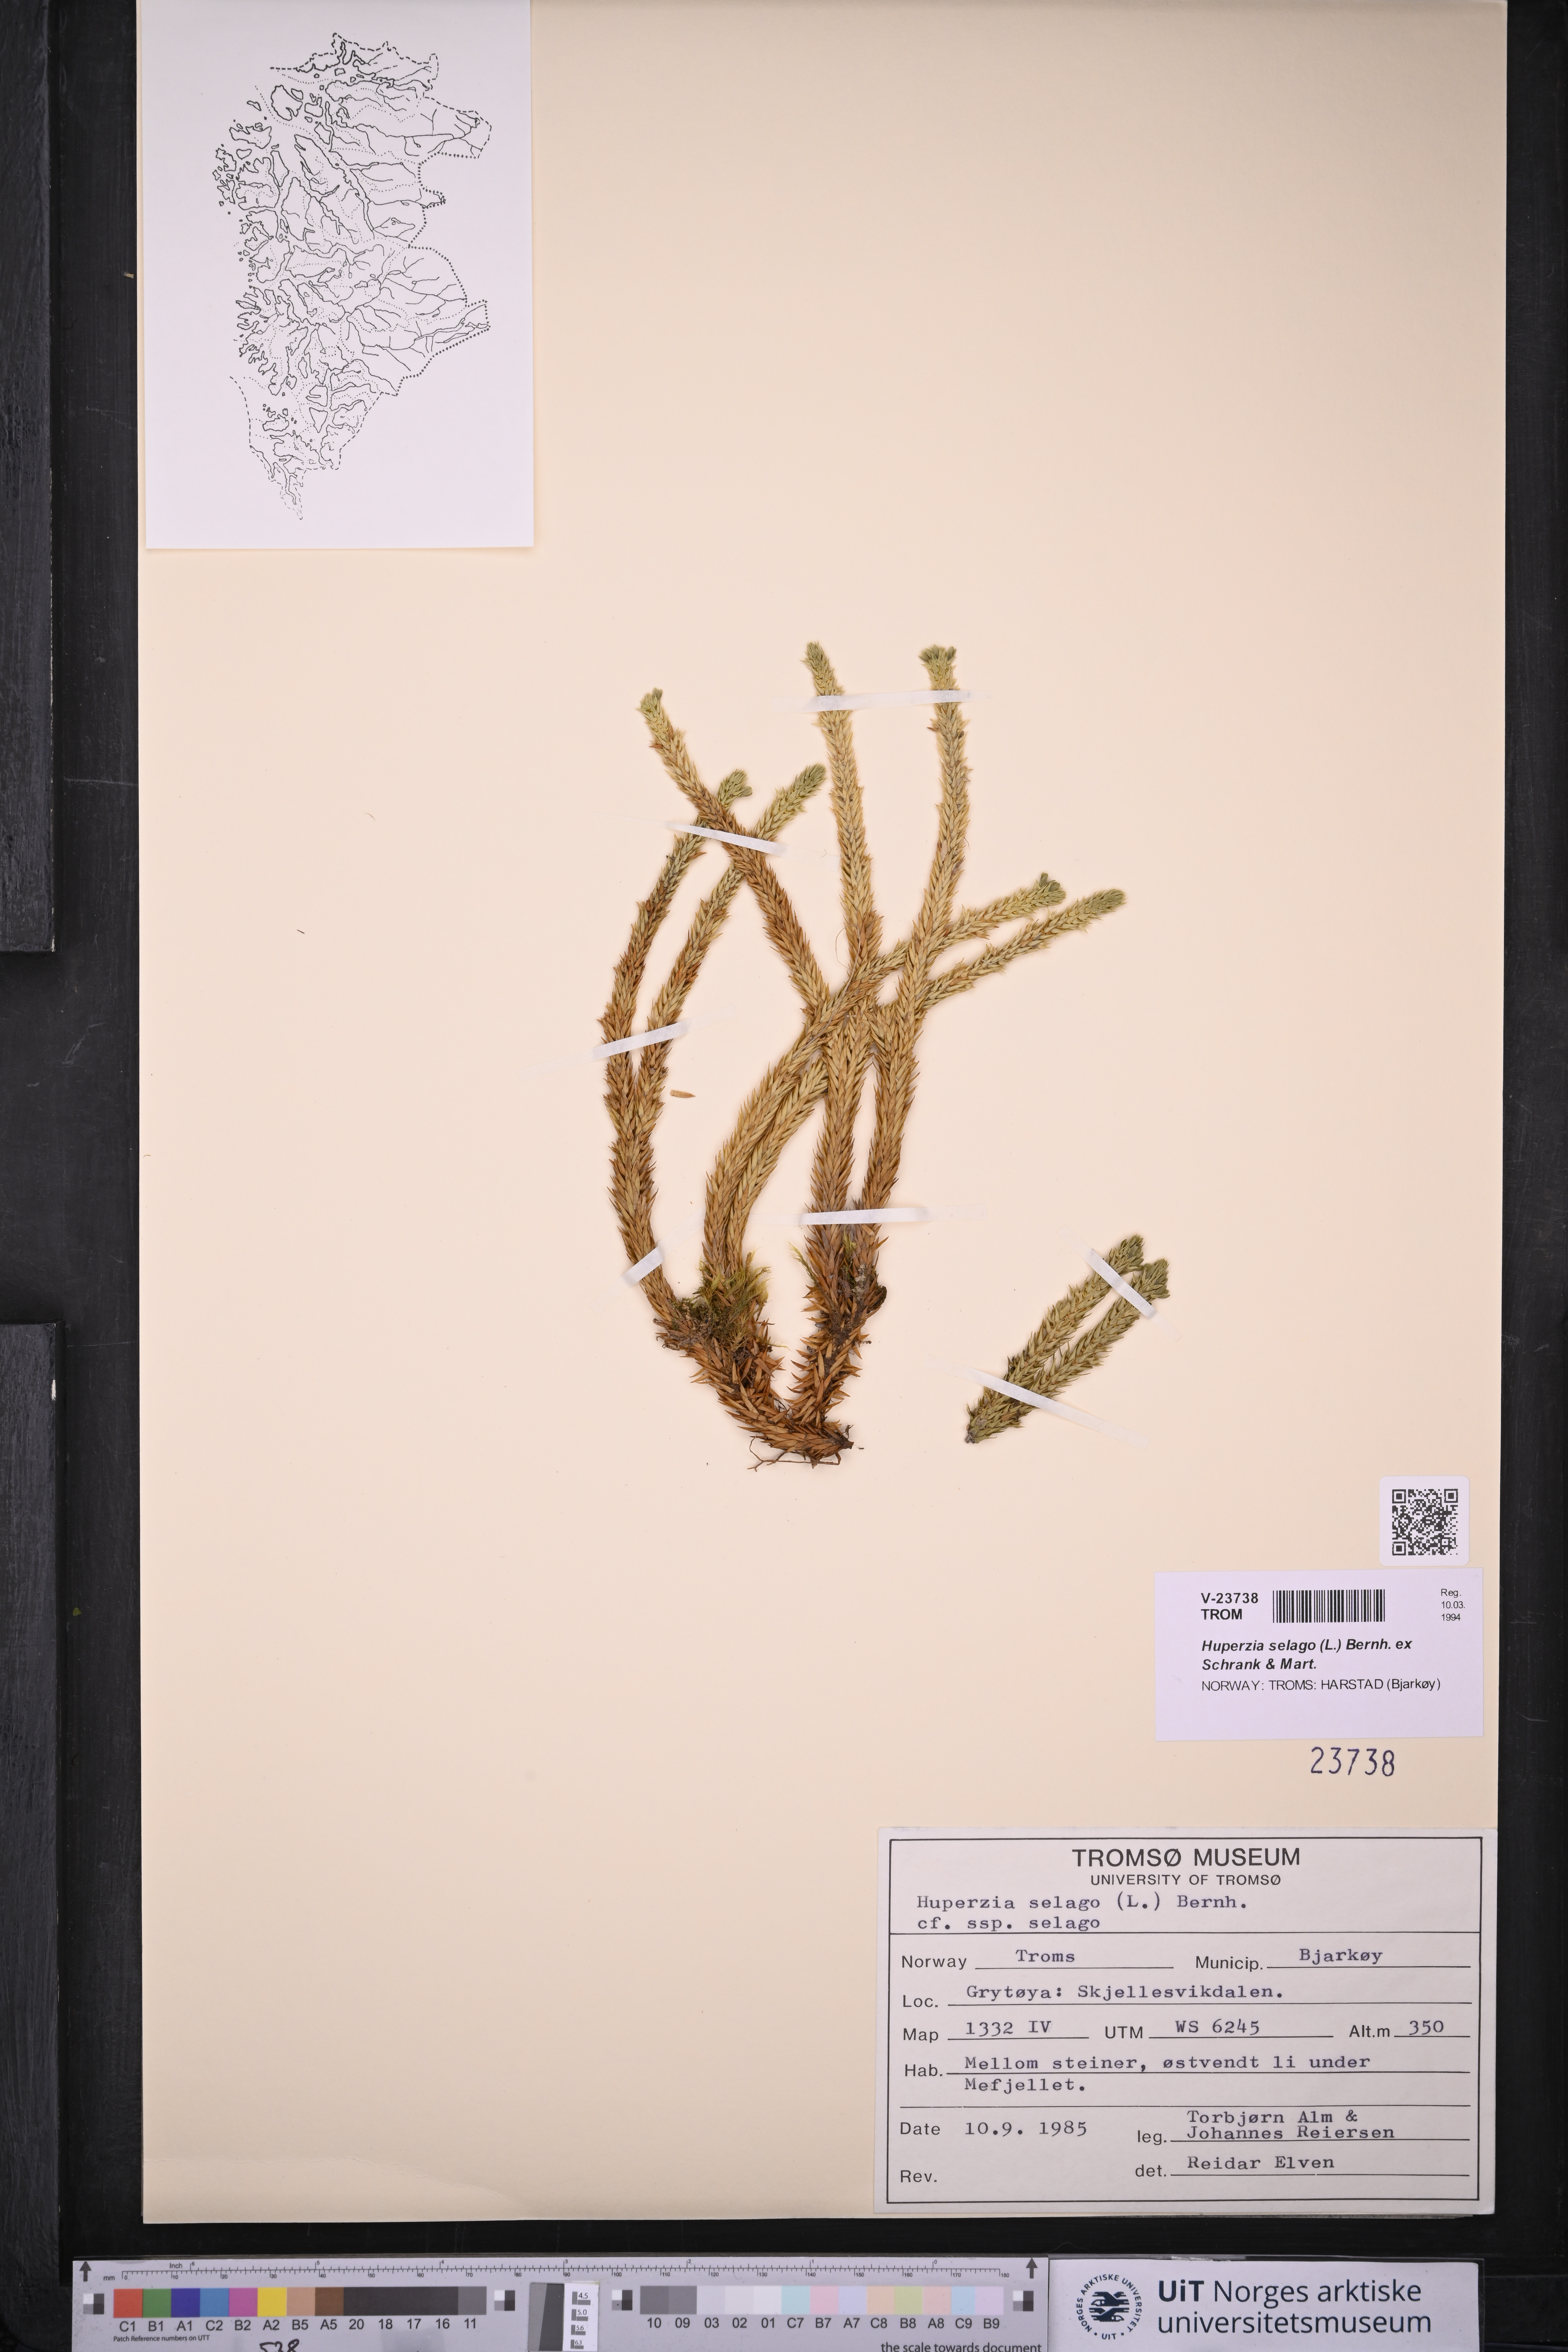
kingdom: Plantae
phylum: Tracheophyta
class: Lycopodiopsida
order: Lycopodiales
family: Lycopodiaceae
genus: Huperzia
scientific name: Huperzia selago
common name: Northern firmoss
